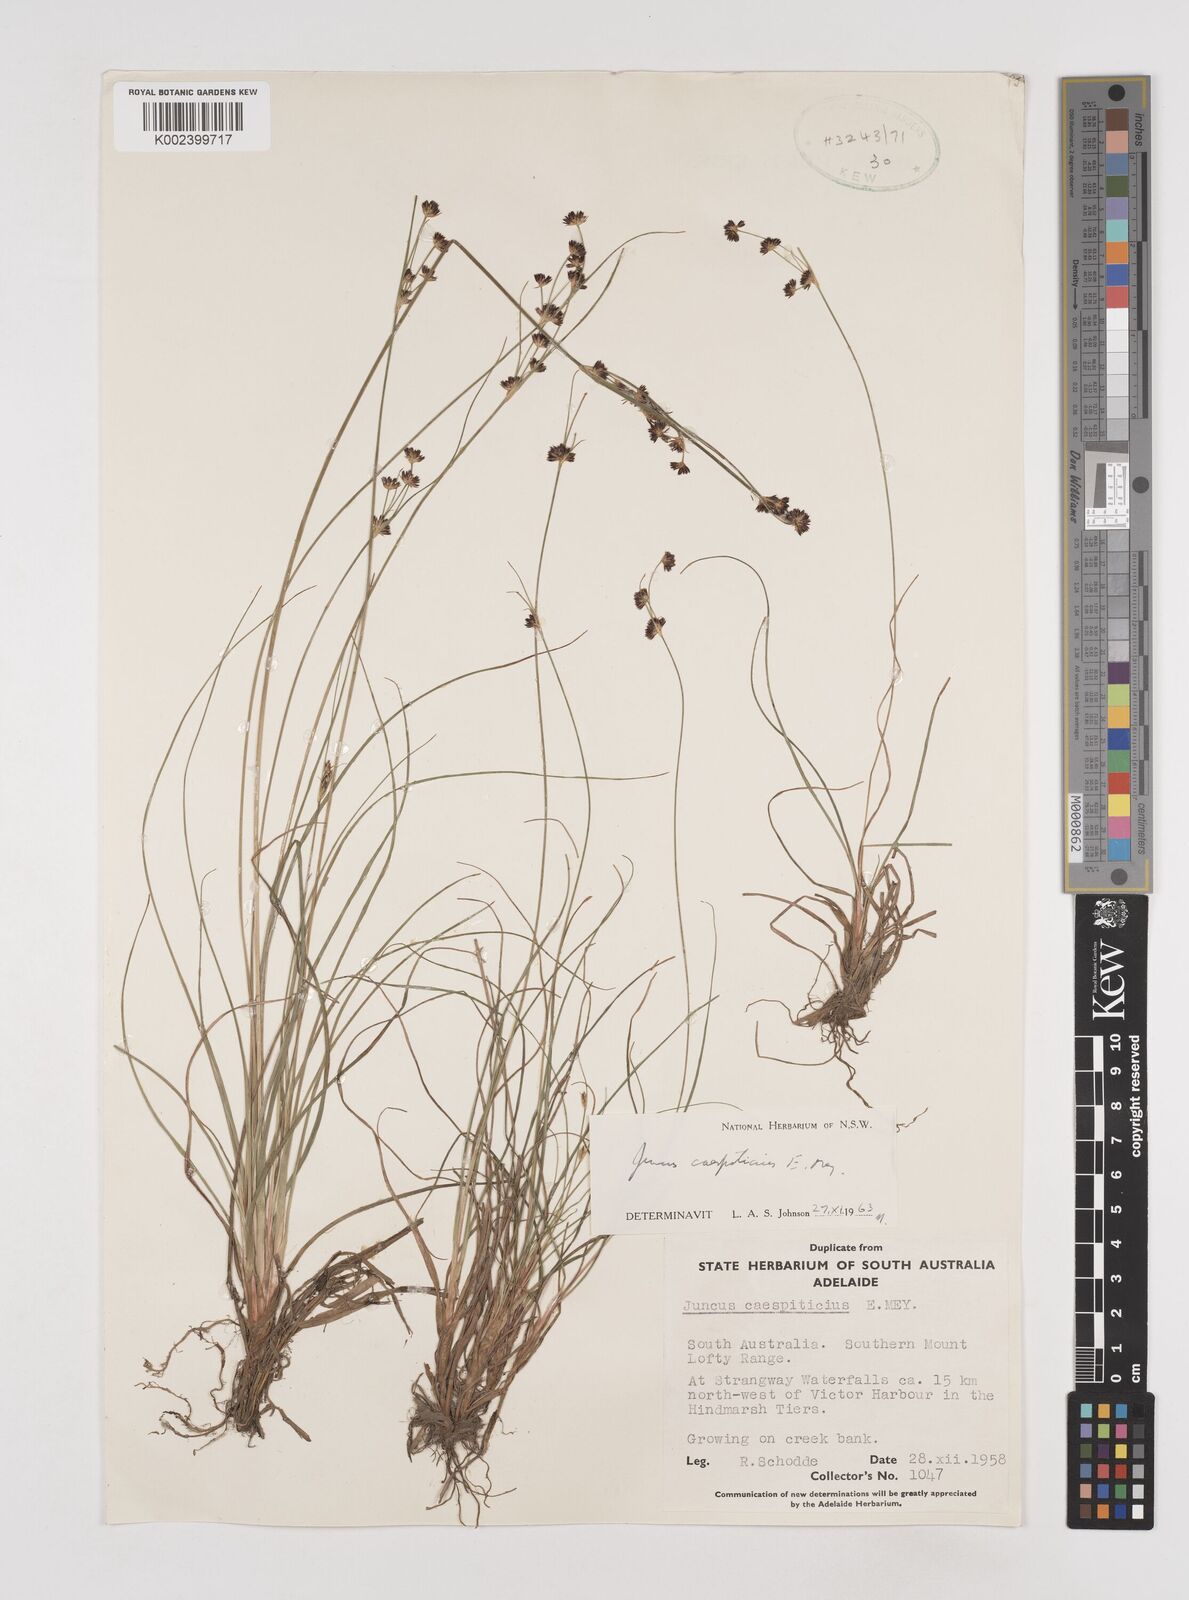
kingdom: Plantae
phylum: Tracheophyta
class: Liliopsida
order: Poales
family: Juncaceae
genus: Juncus
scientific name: Juncus caespiticius
